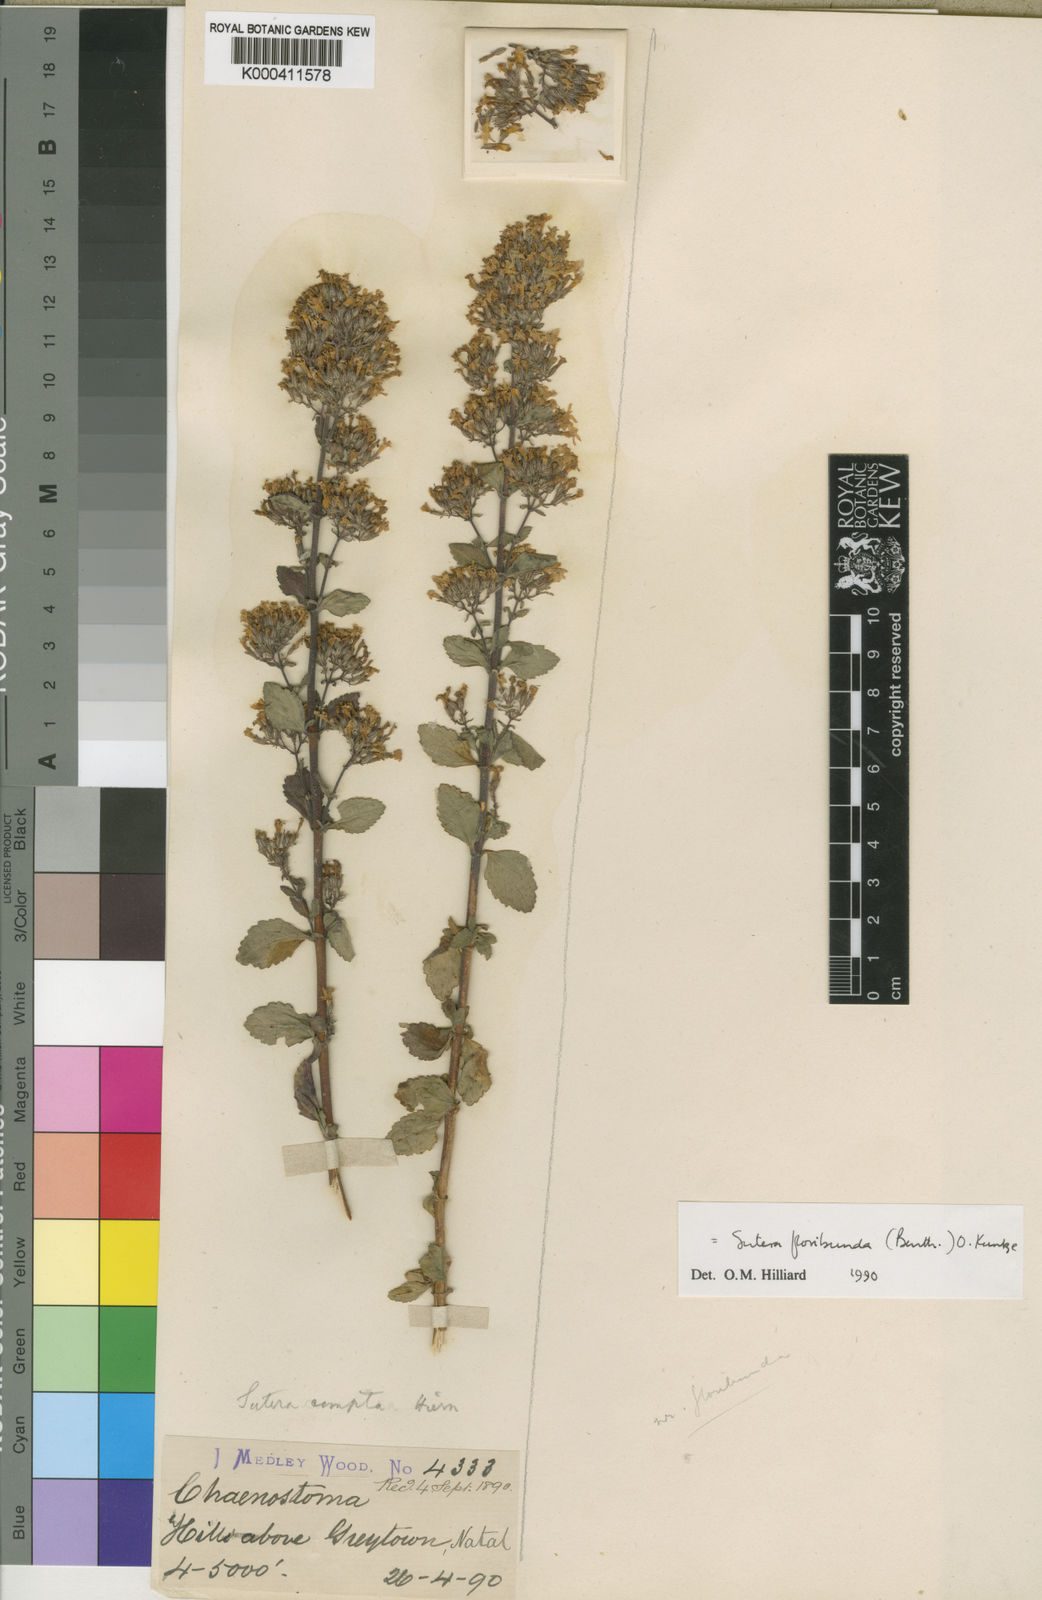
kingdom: Plantae
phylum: Tracheophyta
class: Magnoliopsida
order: Lamiales
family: Scrophulariaceae
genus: Chaenostoma
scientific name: Chaenostoma floribundum
